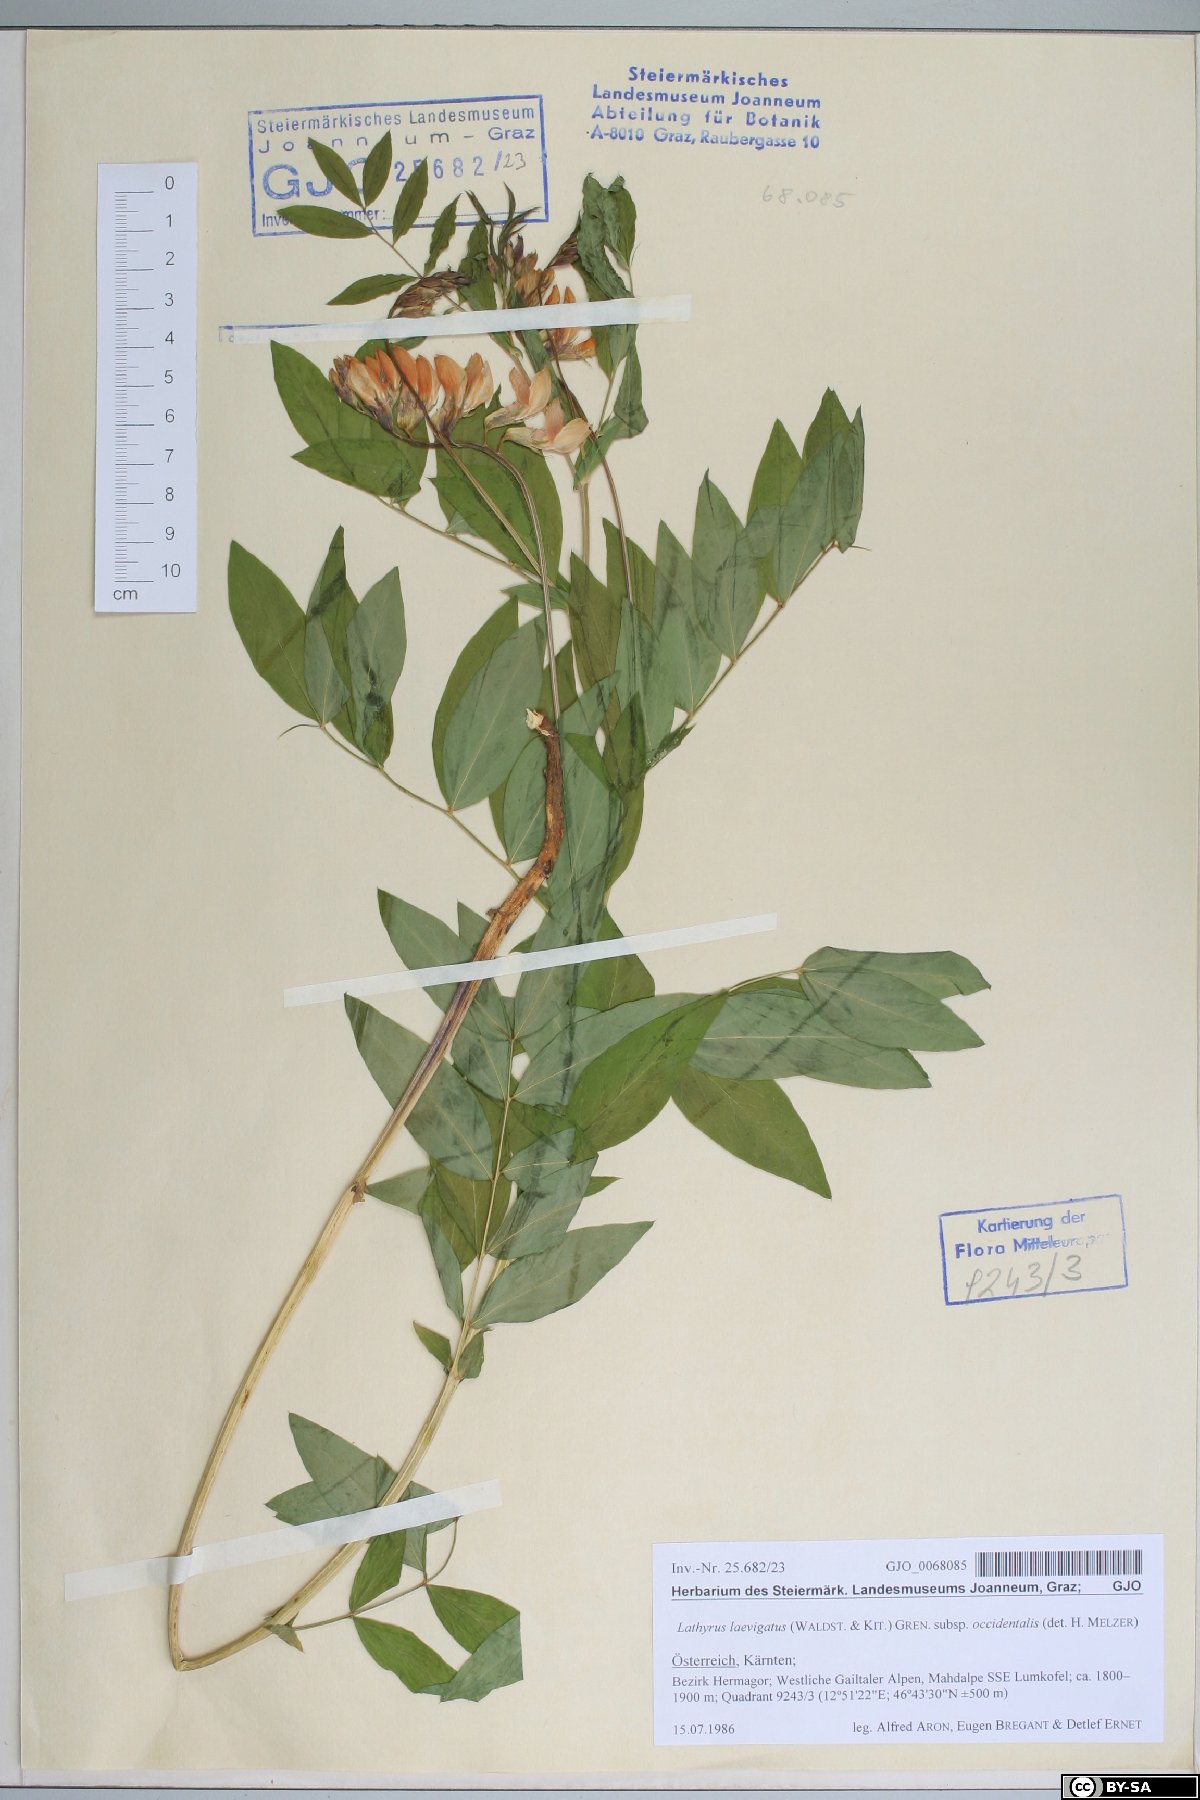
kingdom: Plantae
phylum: Tracheophyta
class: Magnoliopsida
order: Fabales
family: Fabaceae
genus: Lathyrus
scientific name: Lathyrus laevigatus
